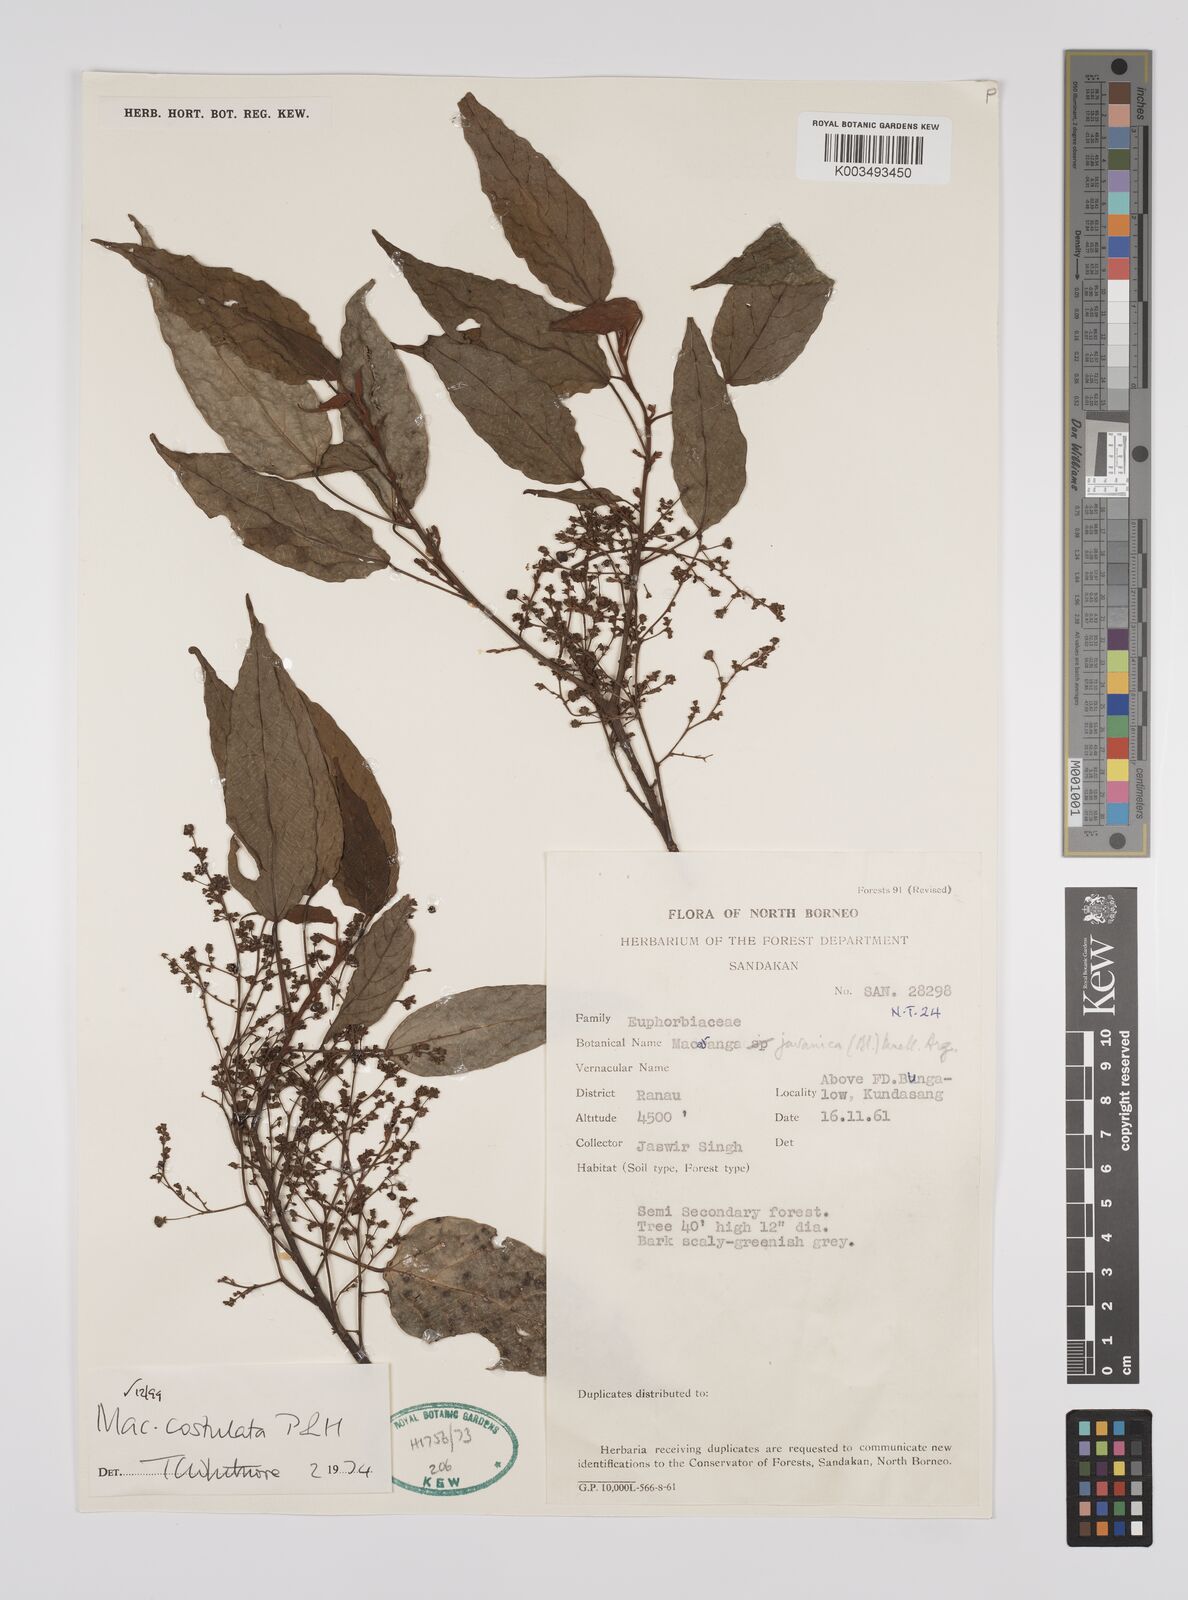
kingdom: Plantae
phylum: Tracheophyta
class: Magnoliopsida
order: Malpighiales
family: Euphorbiaceae
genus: Macaranga
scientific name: Macaranga costulata
